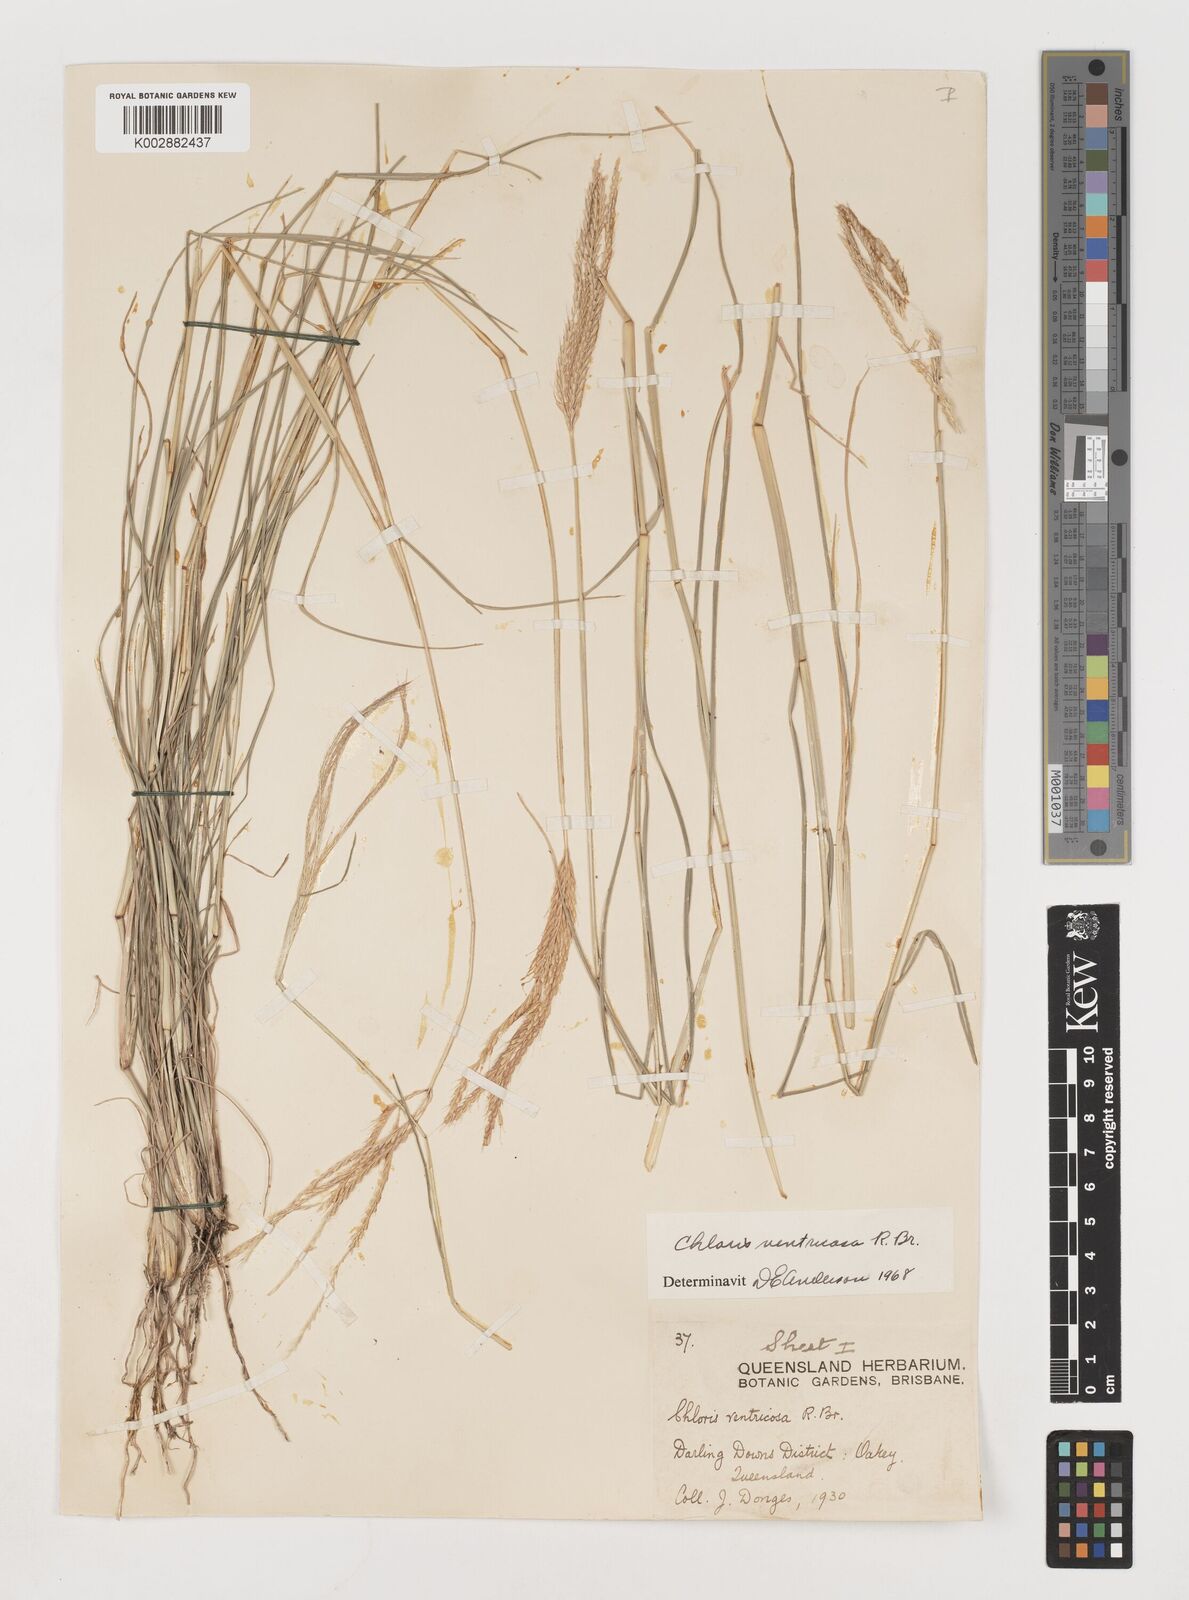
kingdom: Plantae
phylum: Tracheophyta
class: Liliopsida
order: Poales
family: Poaceae
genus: Chloris
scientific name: Chloris ventricosa
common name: Australian windmill grass
